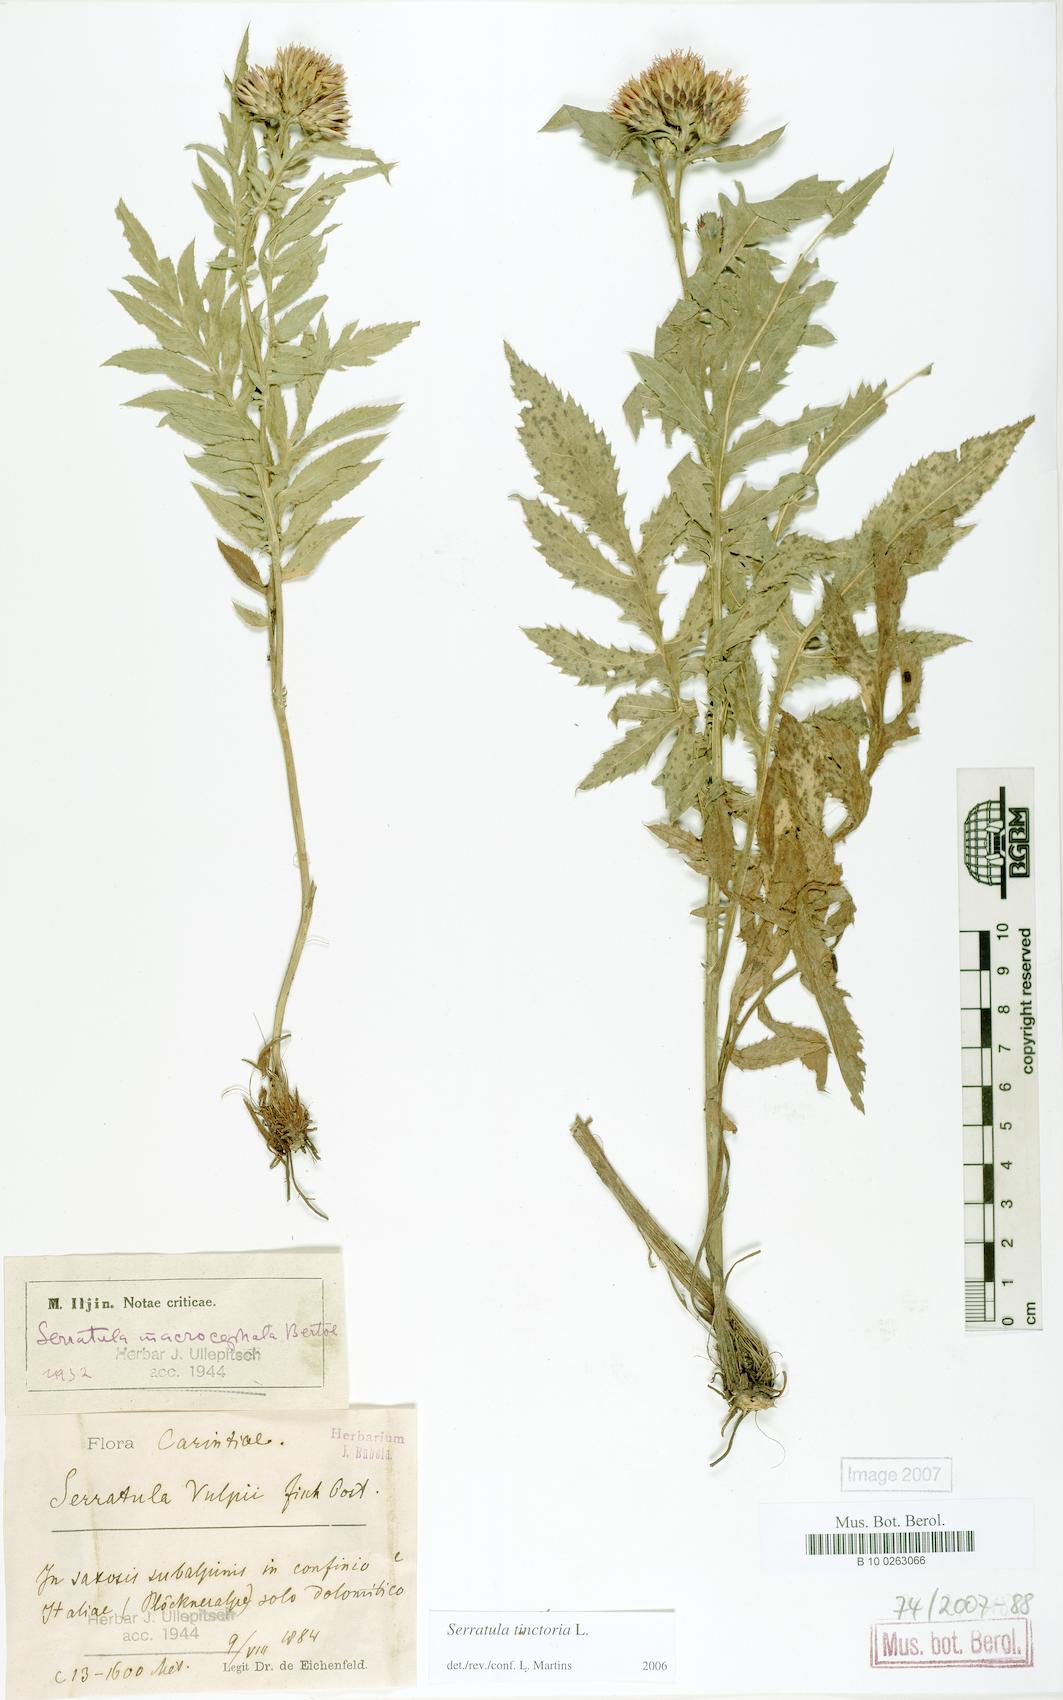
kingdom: Plantae
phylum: Tracheophyta
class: Magnoliopsida
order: Asterales
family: Asteraceae
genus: Serratula
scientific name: Serratula tinctoria
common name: Saw-wort
